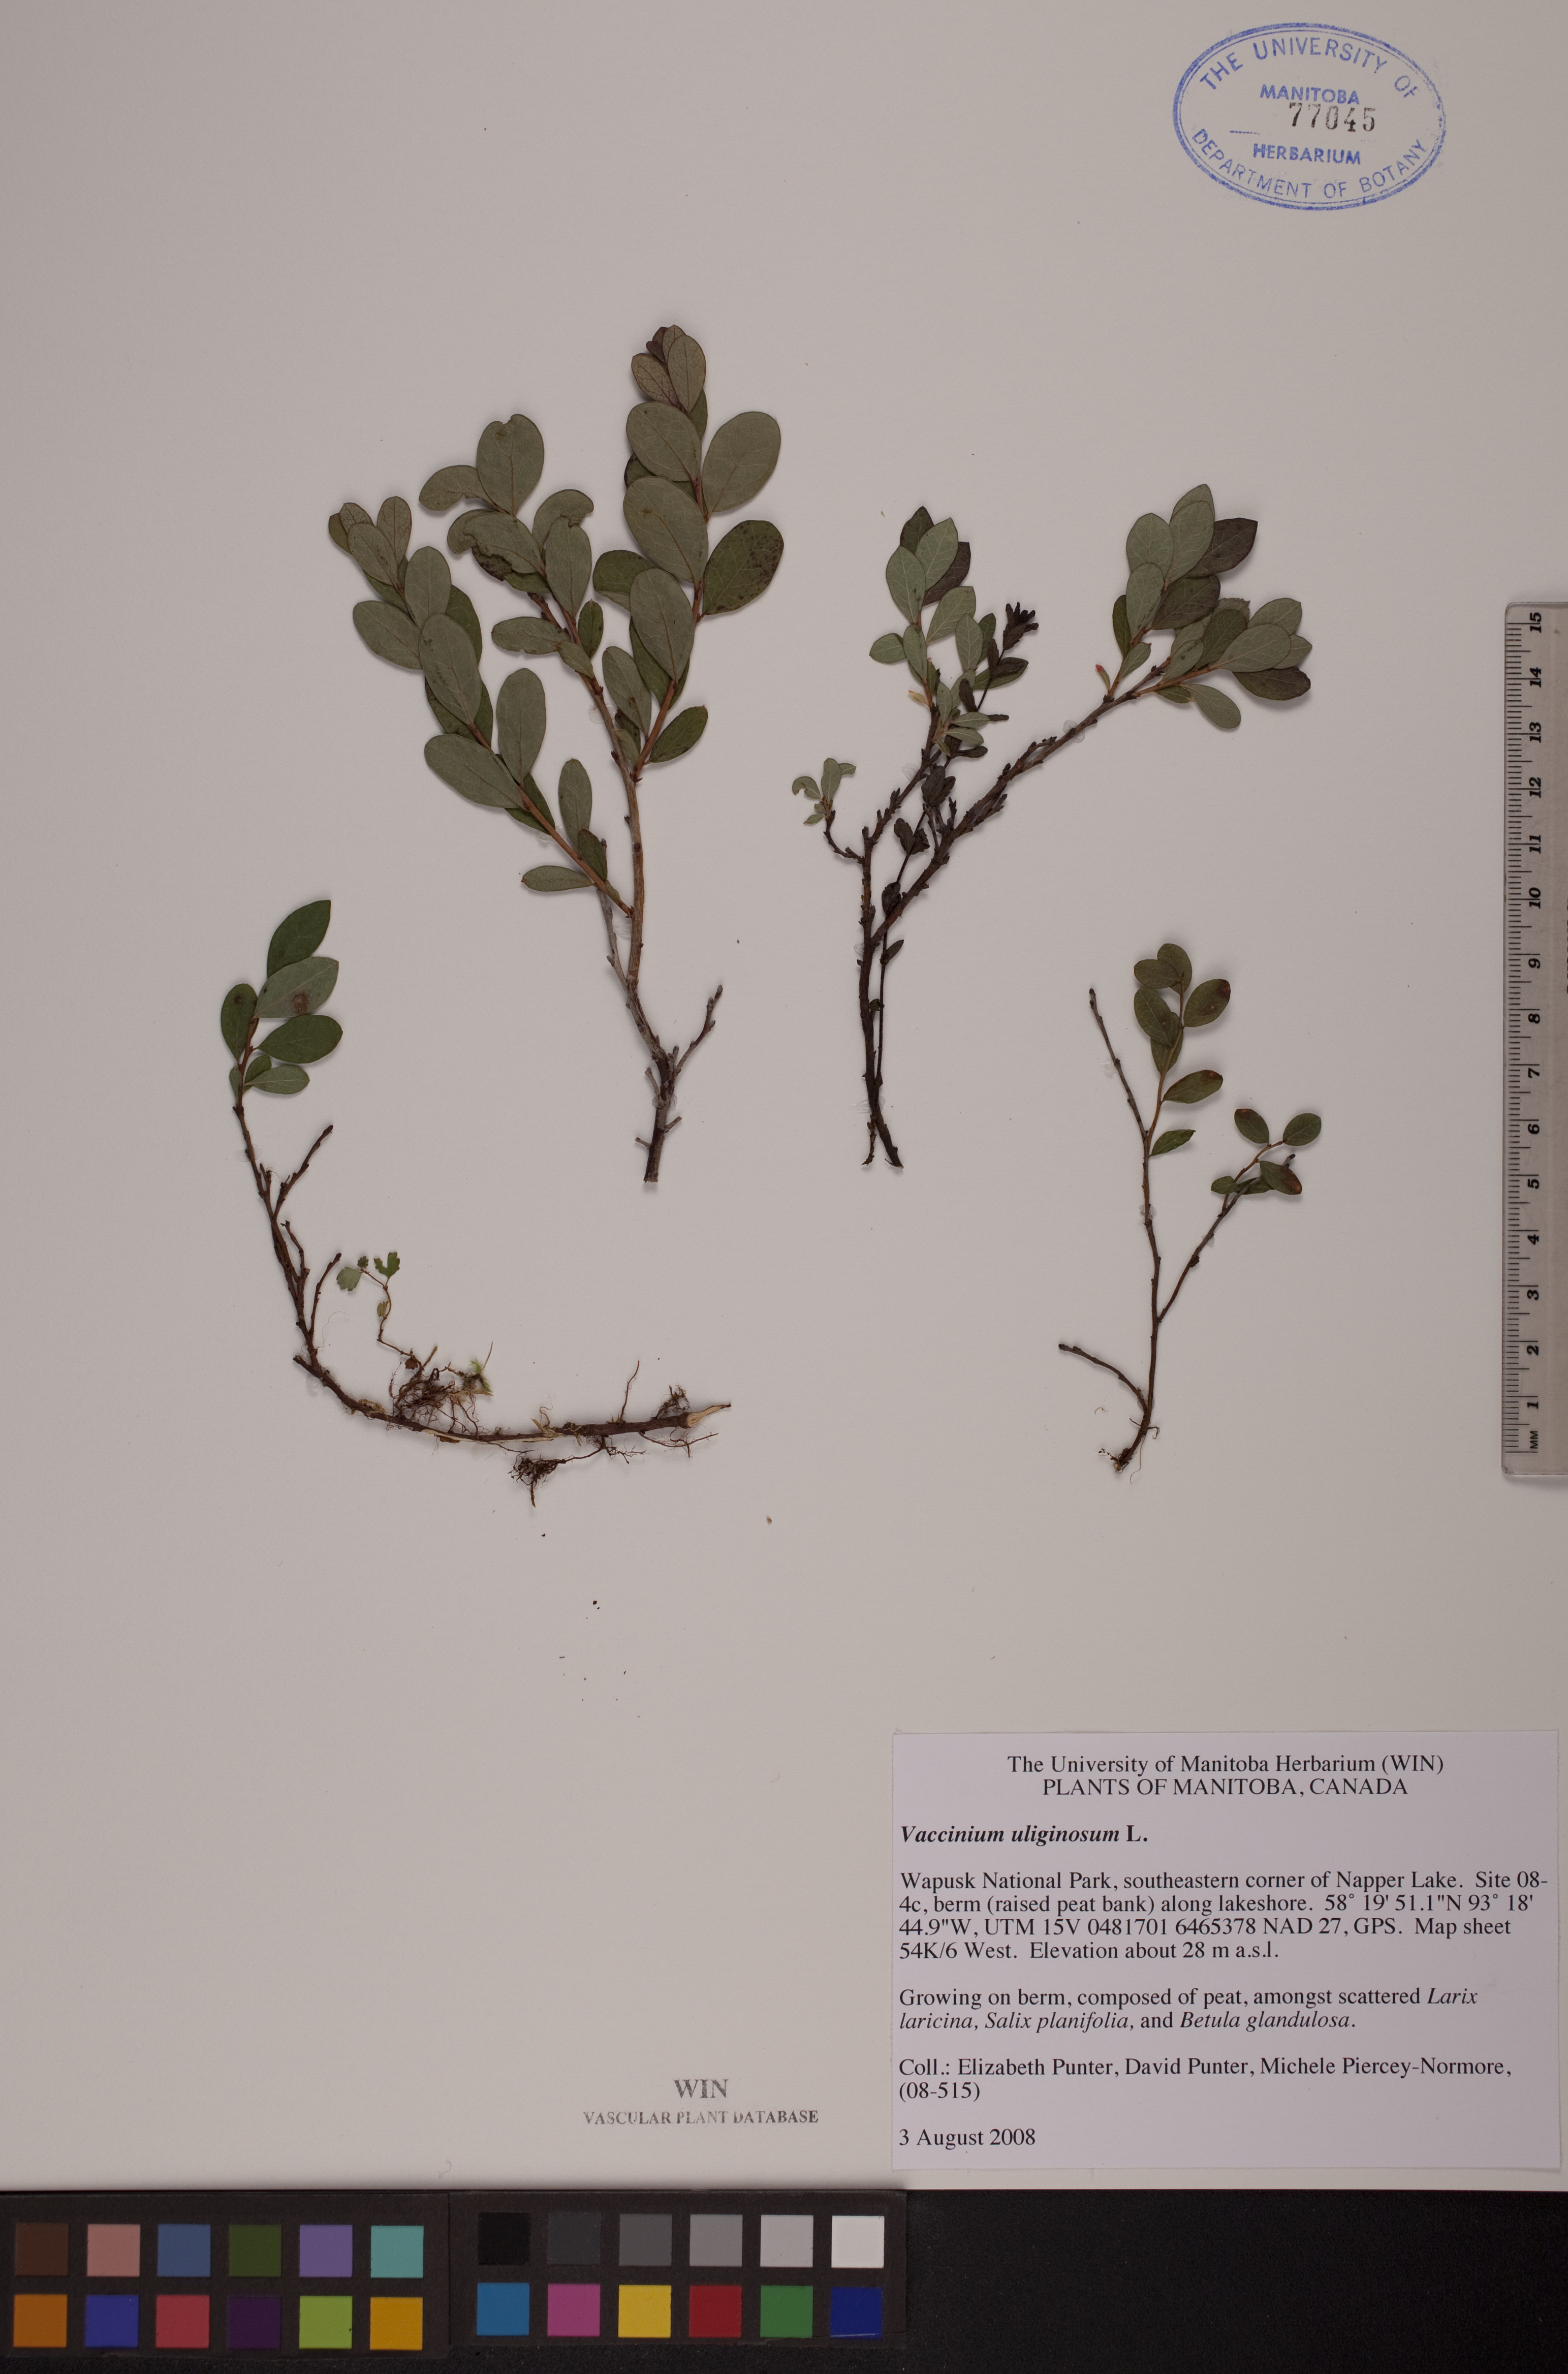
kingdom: Plantae
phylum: Tracheophyta
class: Magnoliopsida
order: Ericales
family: Ericaceae
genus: Vaccinium
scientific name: Vaccinium uliginosum
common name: Bog bilberry
